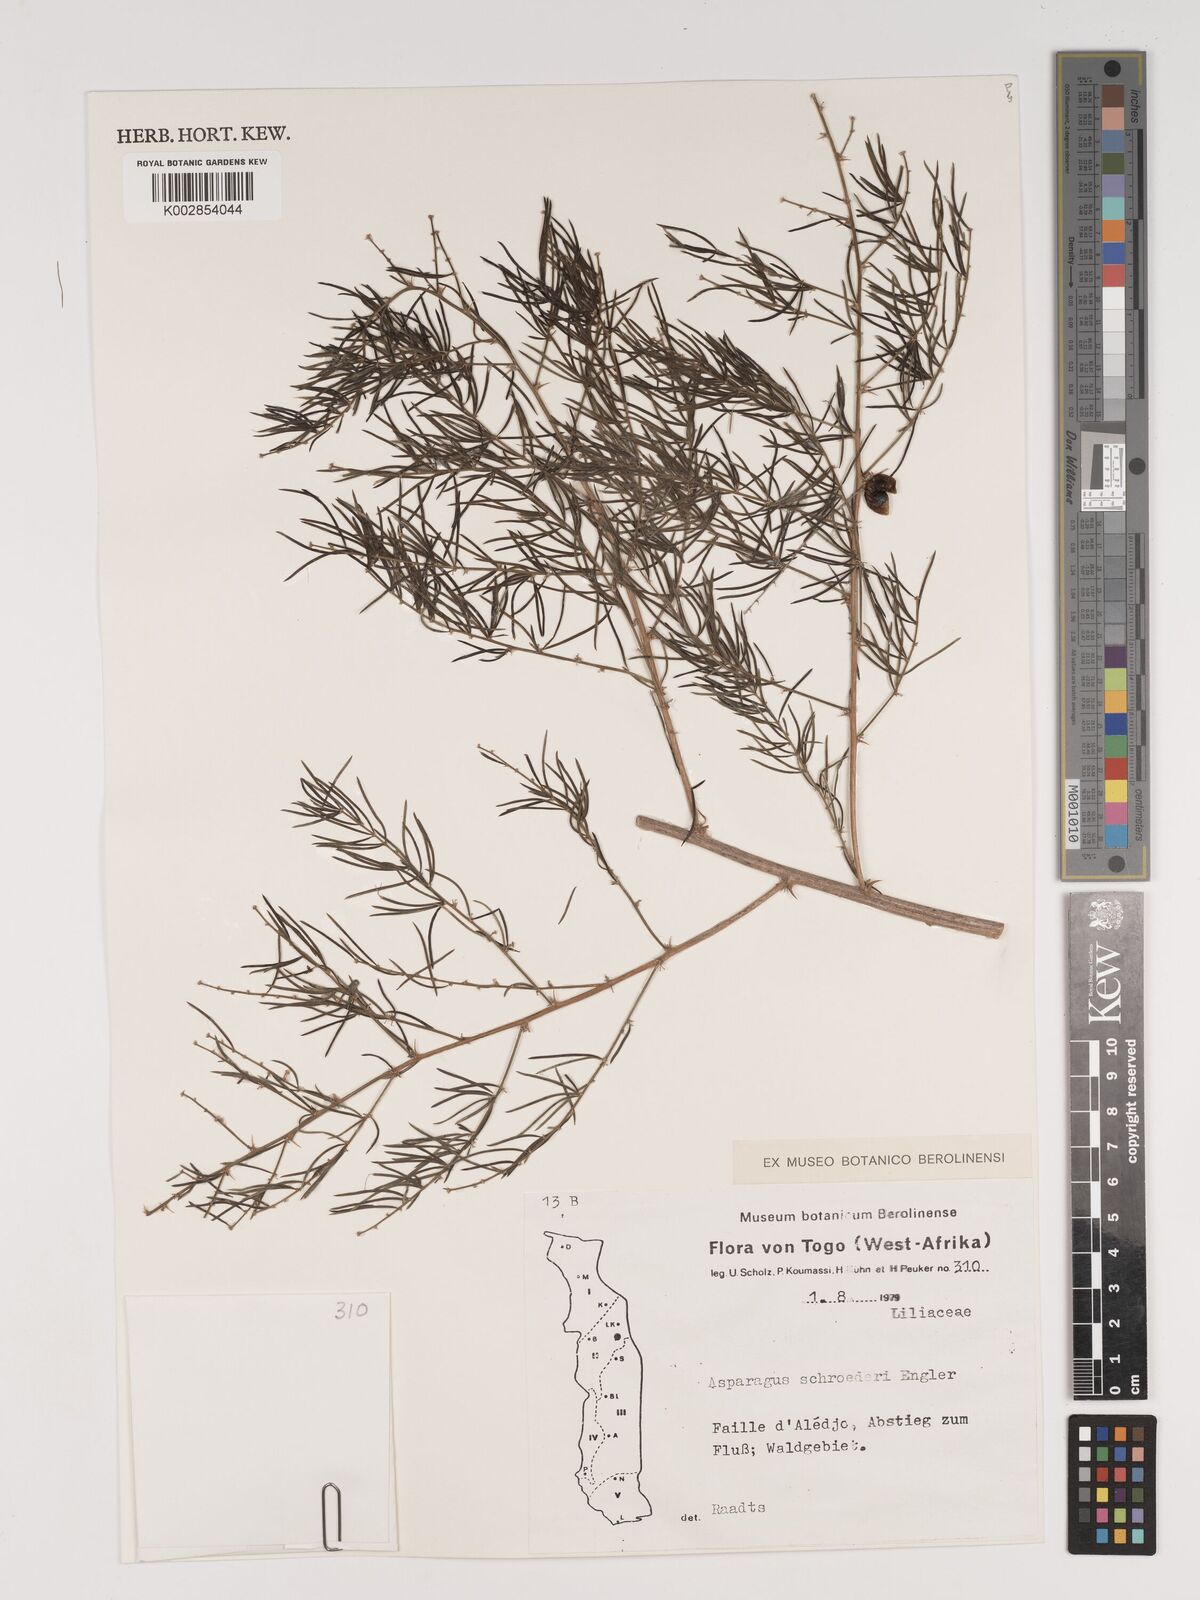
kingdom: Plantae
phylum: Tracheophyta
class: Liliopsida
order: Asparagales
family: Asparagaceae
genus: Asparagus
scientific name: Asparagus schroederi
